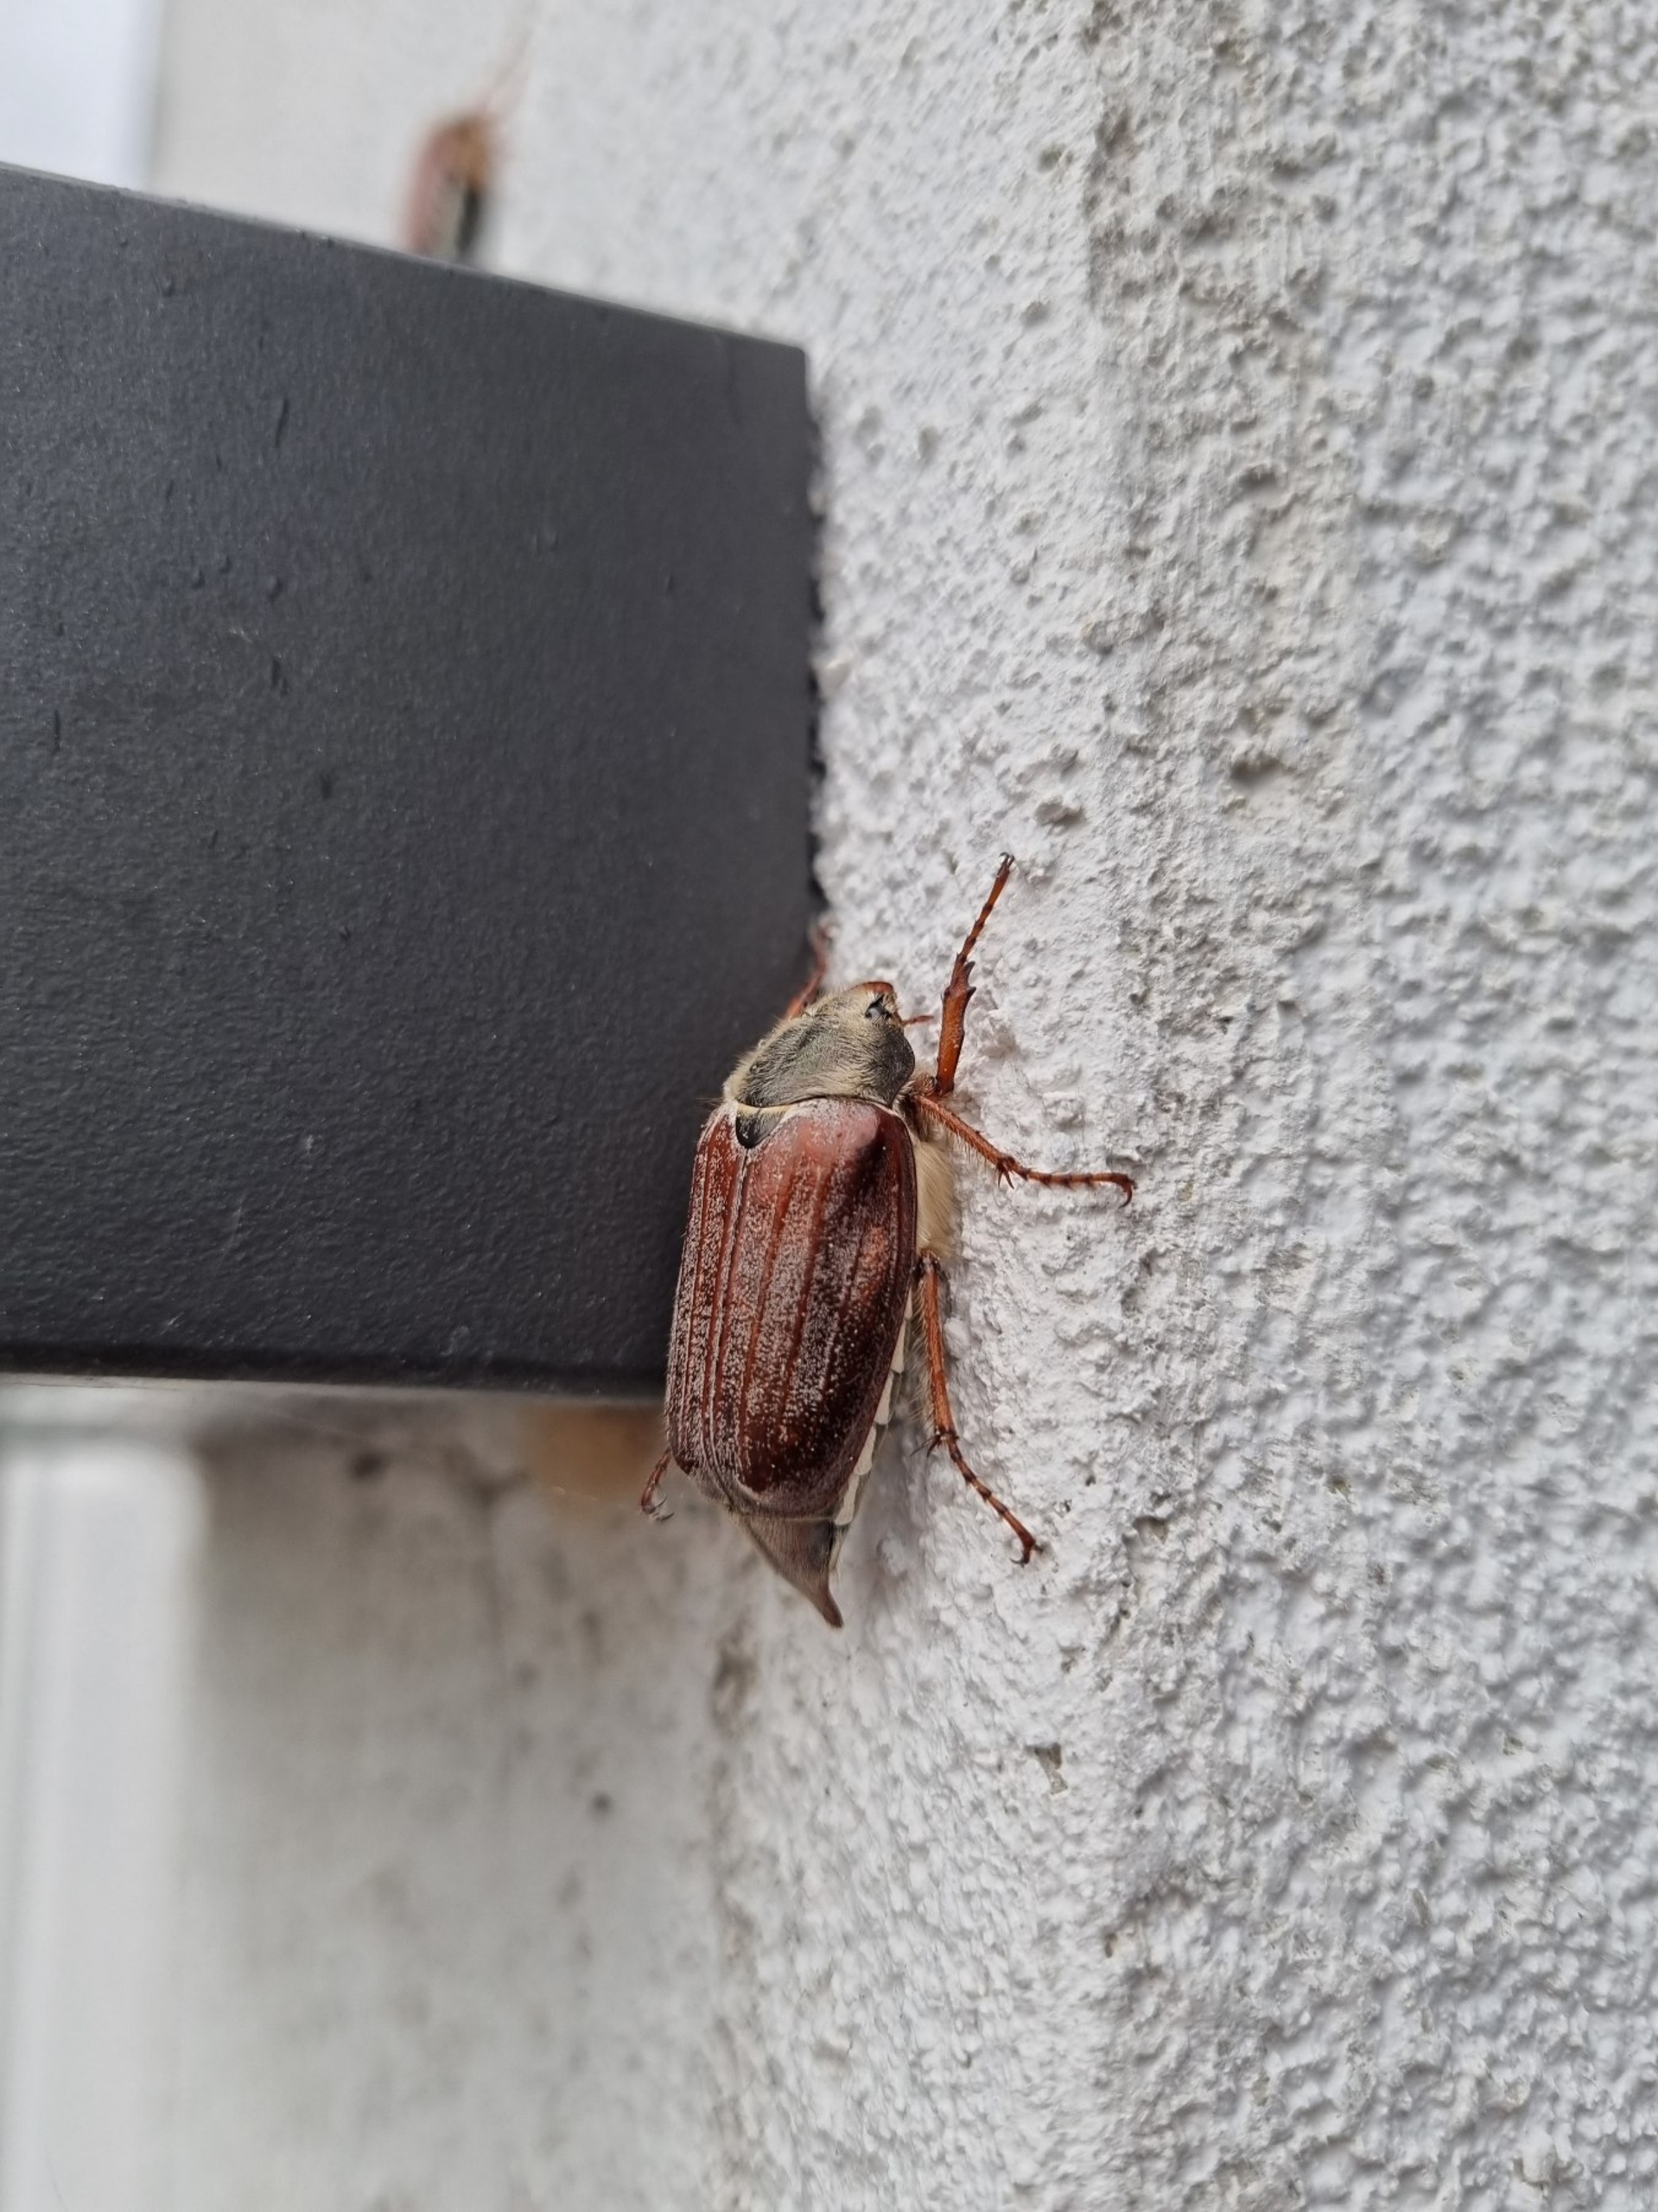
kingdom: Animalia
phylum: Arthropoda
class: Insecta
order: Coleoptera
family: Scarabaeidae
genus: Melolontha
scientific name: Melolontha melolontha
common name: Almindelig oldenborre
